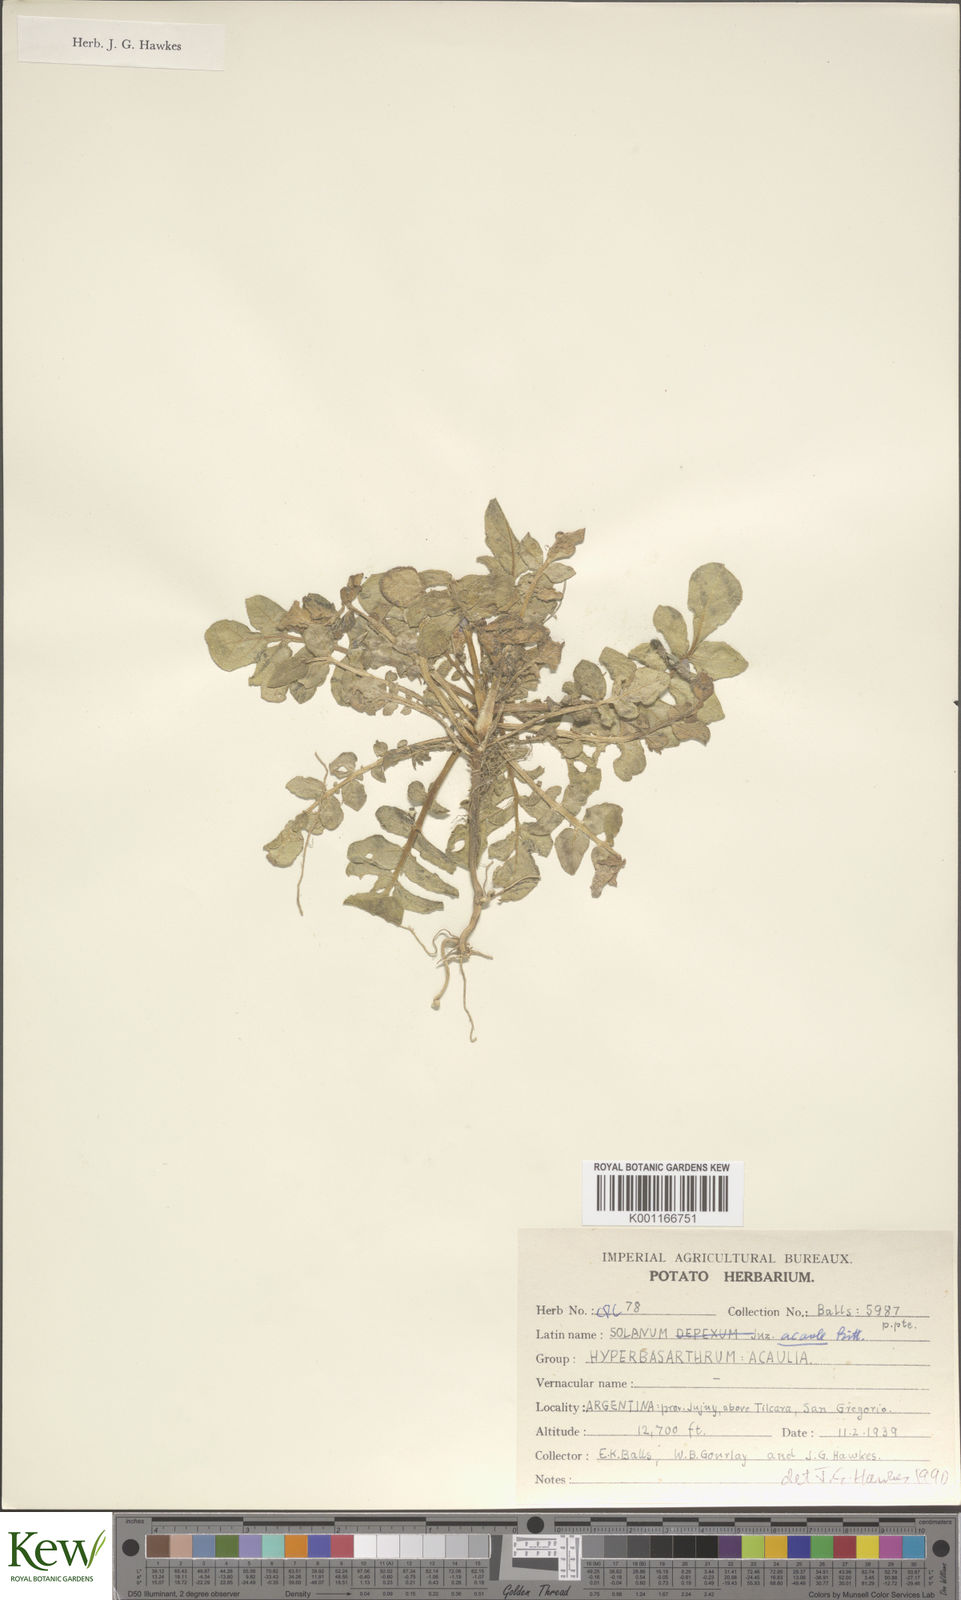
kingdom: Plantae
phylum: Tracheophyta
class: Magnoliopsida
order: Solanales
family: Solanaceae
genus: Solanum
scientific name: Solanum acaule
